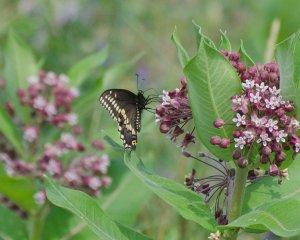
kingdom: Animalia
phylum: Arthropoda
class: Insecta
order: Lepidoptera
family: Papilionidae
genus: Papilio
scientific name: Papilio polyxenes
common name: Black Swallowtail
